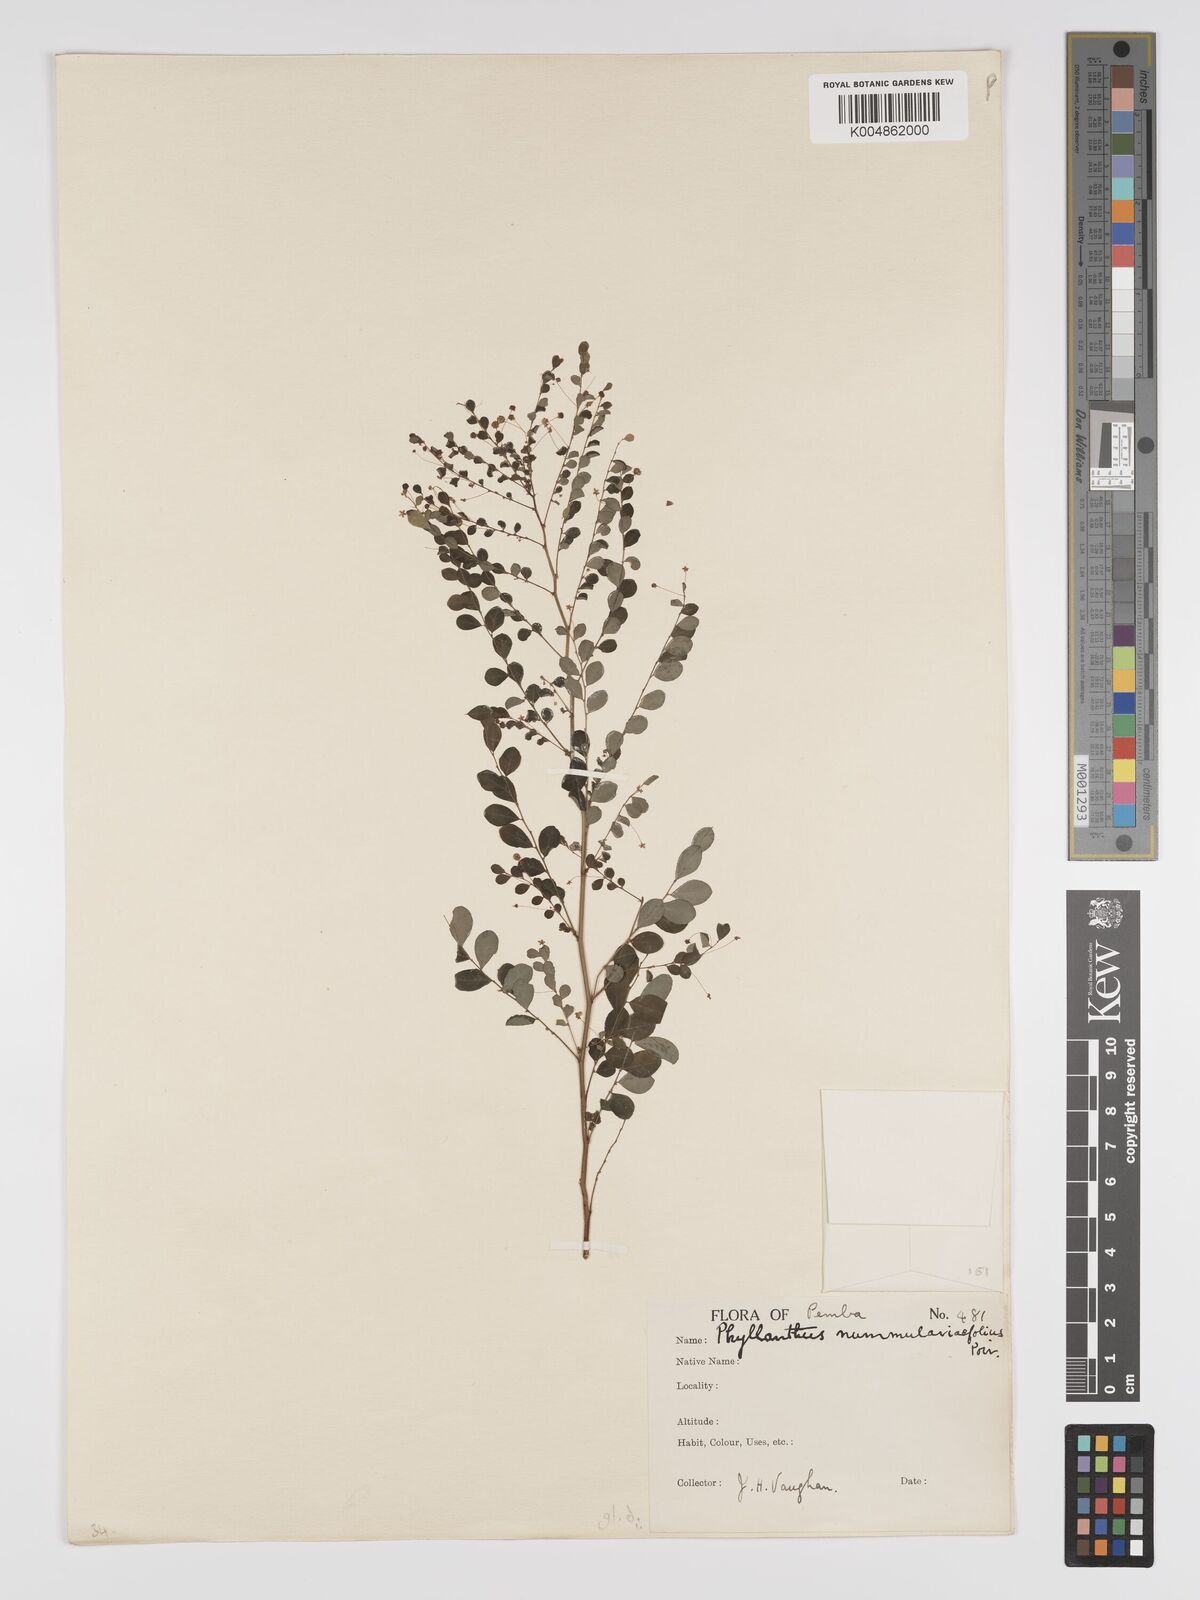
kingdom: Plantae
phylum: Tracheophyta
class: Magnoliopsida
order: Malpighiales
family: Phyllanthaceae
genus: Phyllanthus
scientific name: Phyllanthus nummulariifolius
